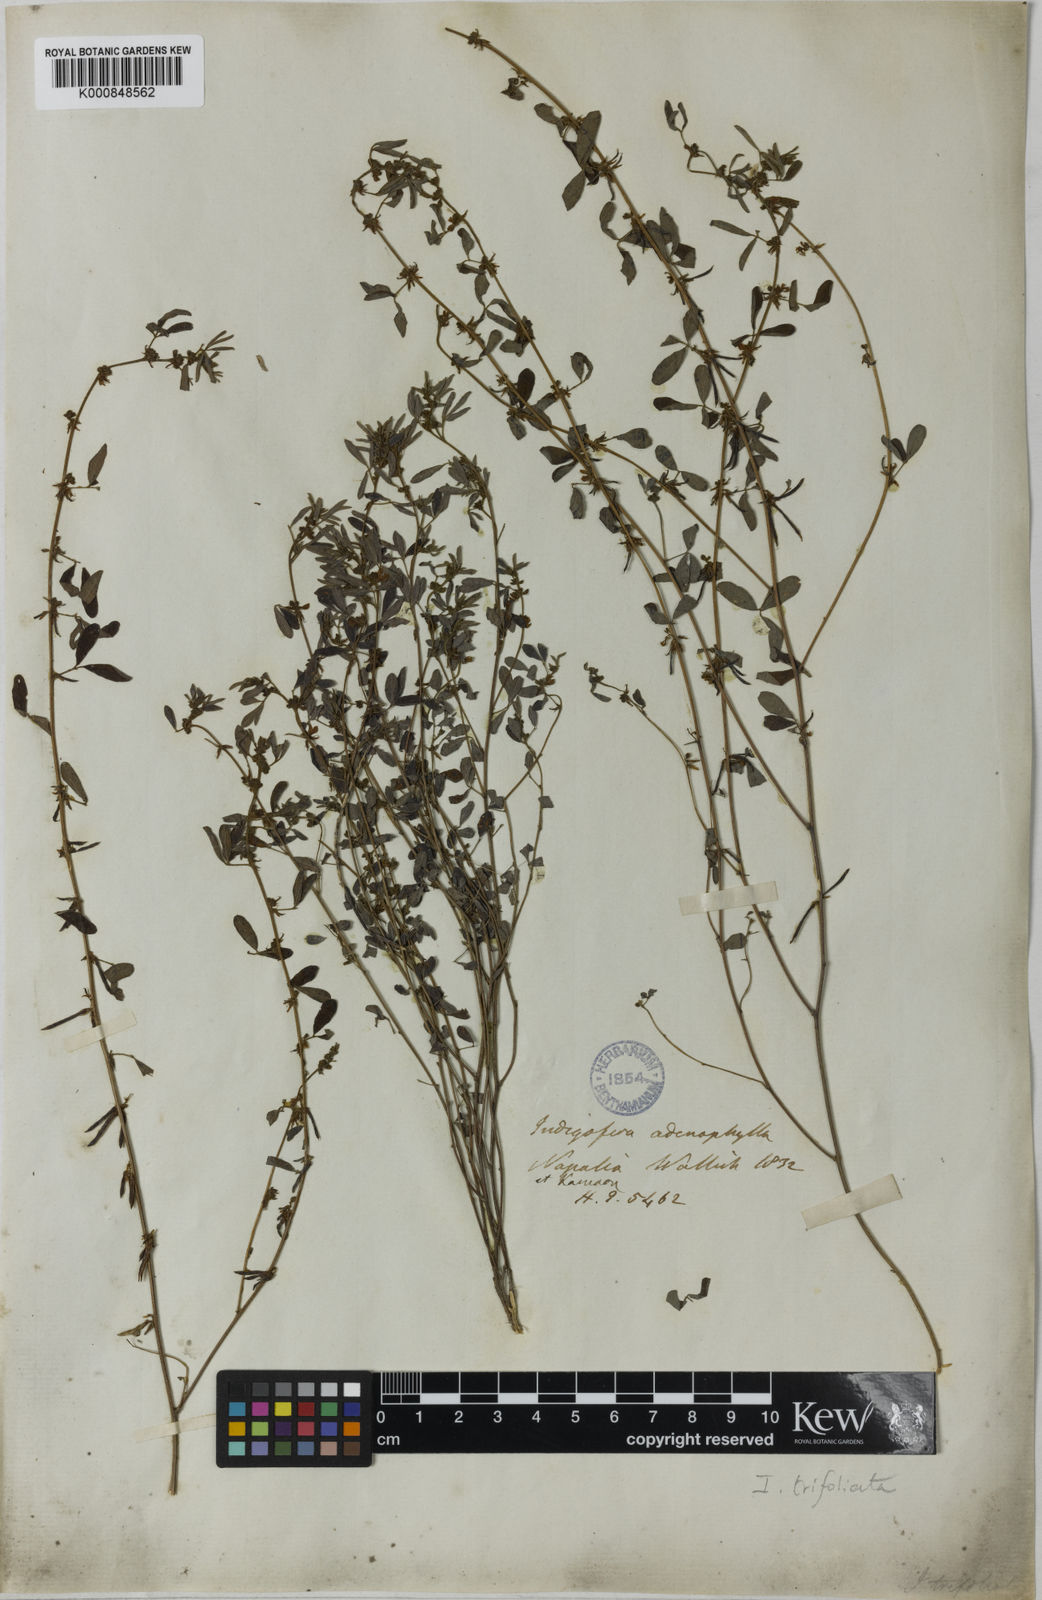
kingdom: Plantae
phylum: Tracheophyta
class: Magnoliopsida
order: Fabales
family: Fabaceae
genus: Indigofera
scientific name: Indigofera trifoliata
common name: Threeleaf indigo
